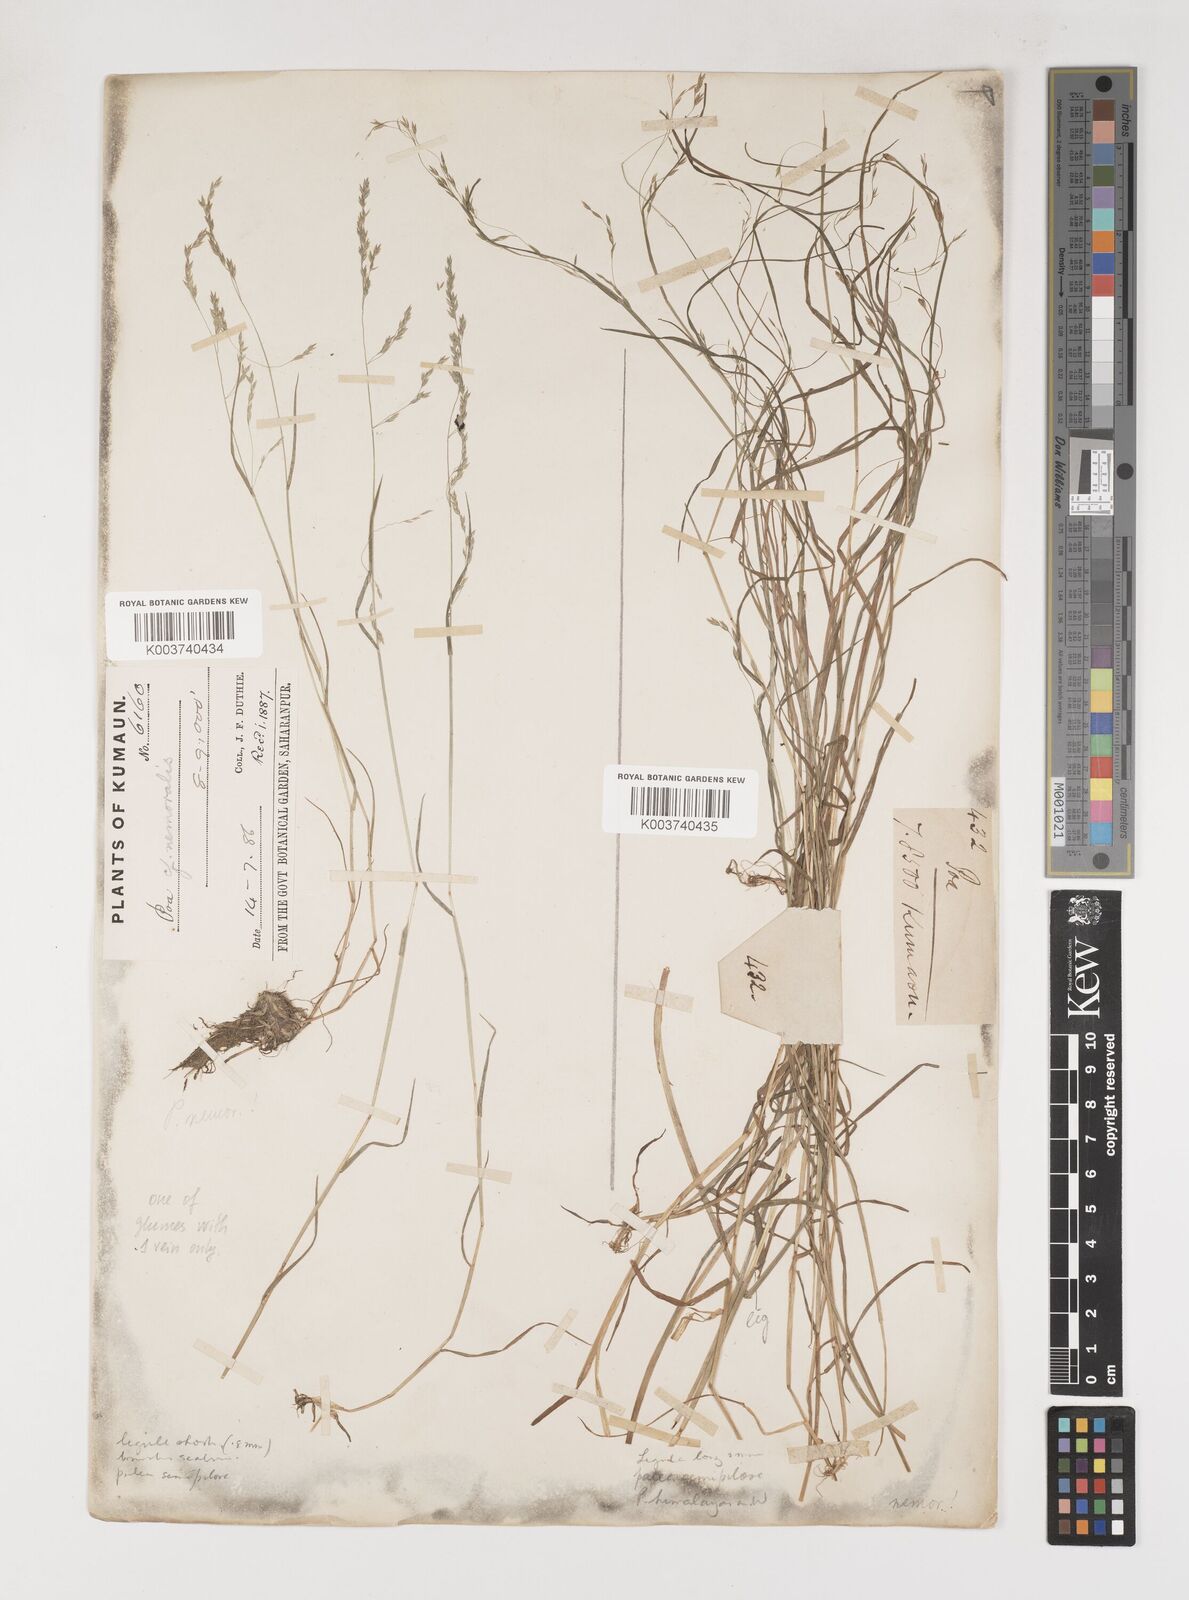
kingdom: Plantae
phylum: Tracheophyta
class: Liliopsida
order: Poales
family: Poaceae
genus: Poa
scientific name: Poa nemoralis
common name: Wood bluegrass
